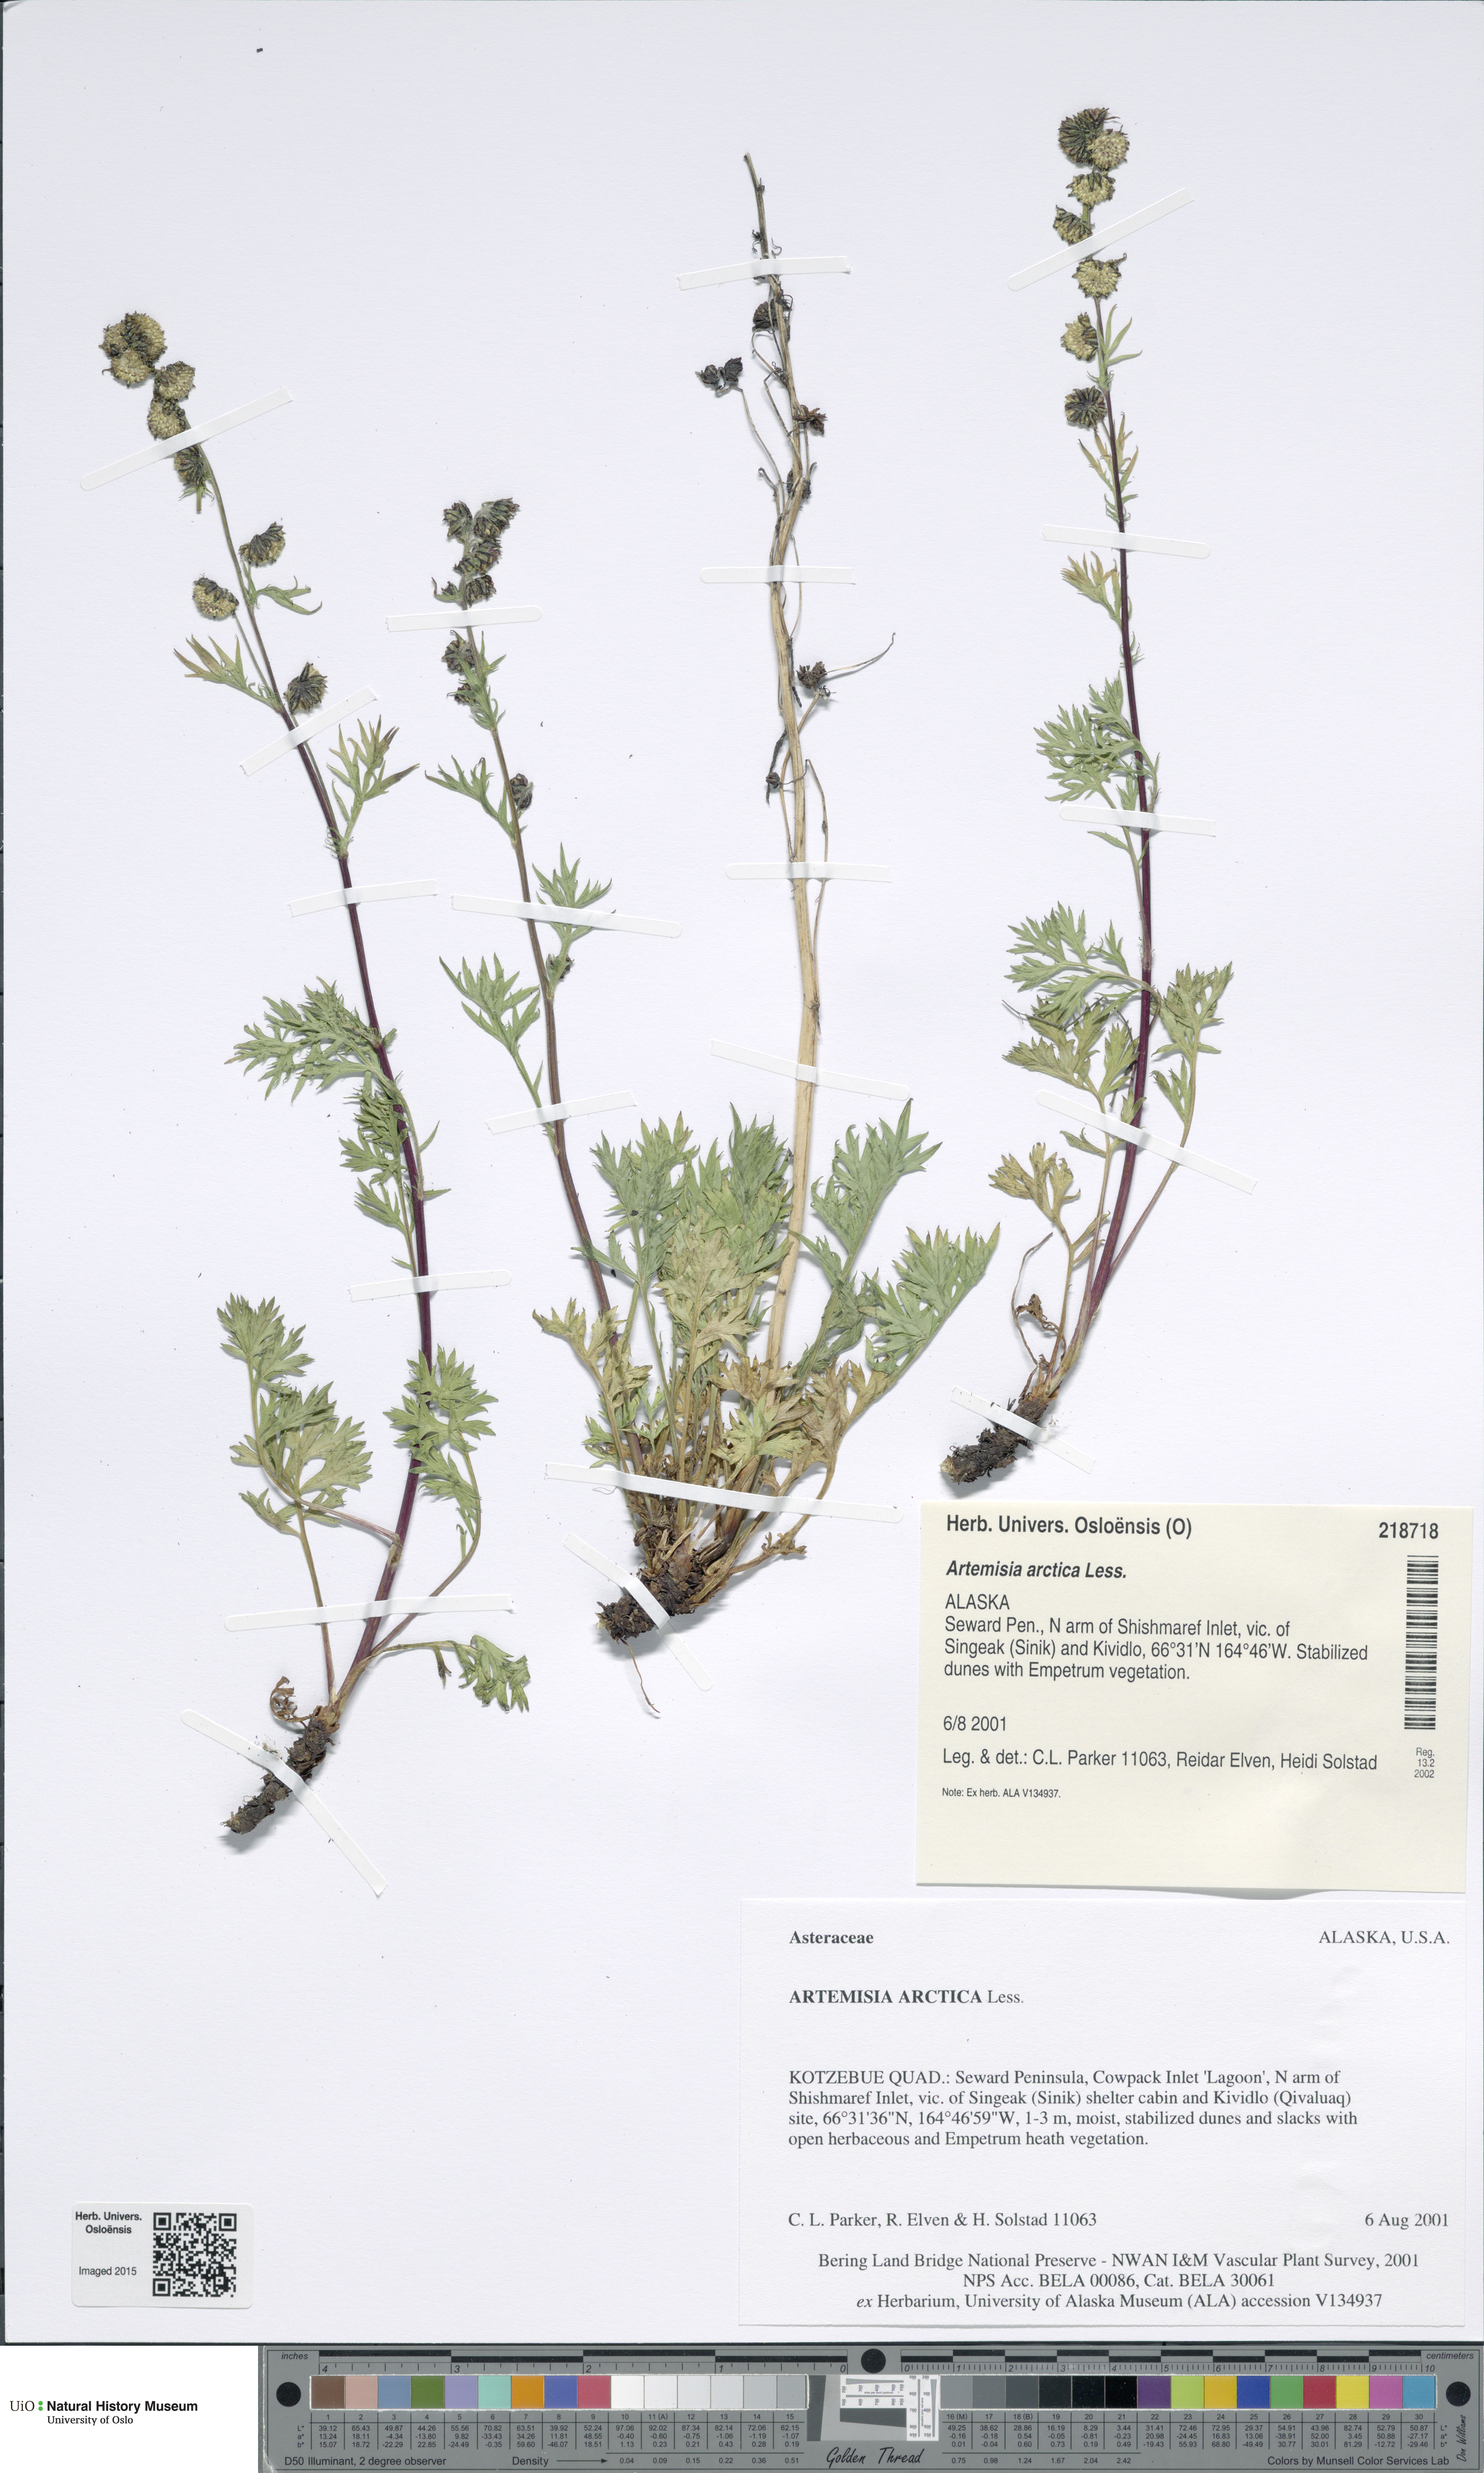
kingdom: Plantae
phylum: Tracheophyta
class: Magnoliopsida
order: Asterales
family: Asteraceae
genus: Artemisia
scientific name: Artemisia norvegica
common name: Norwegian mugwort
